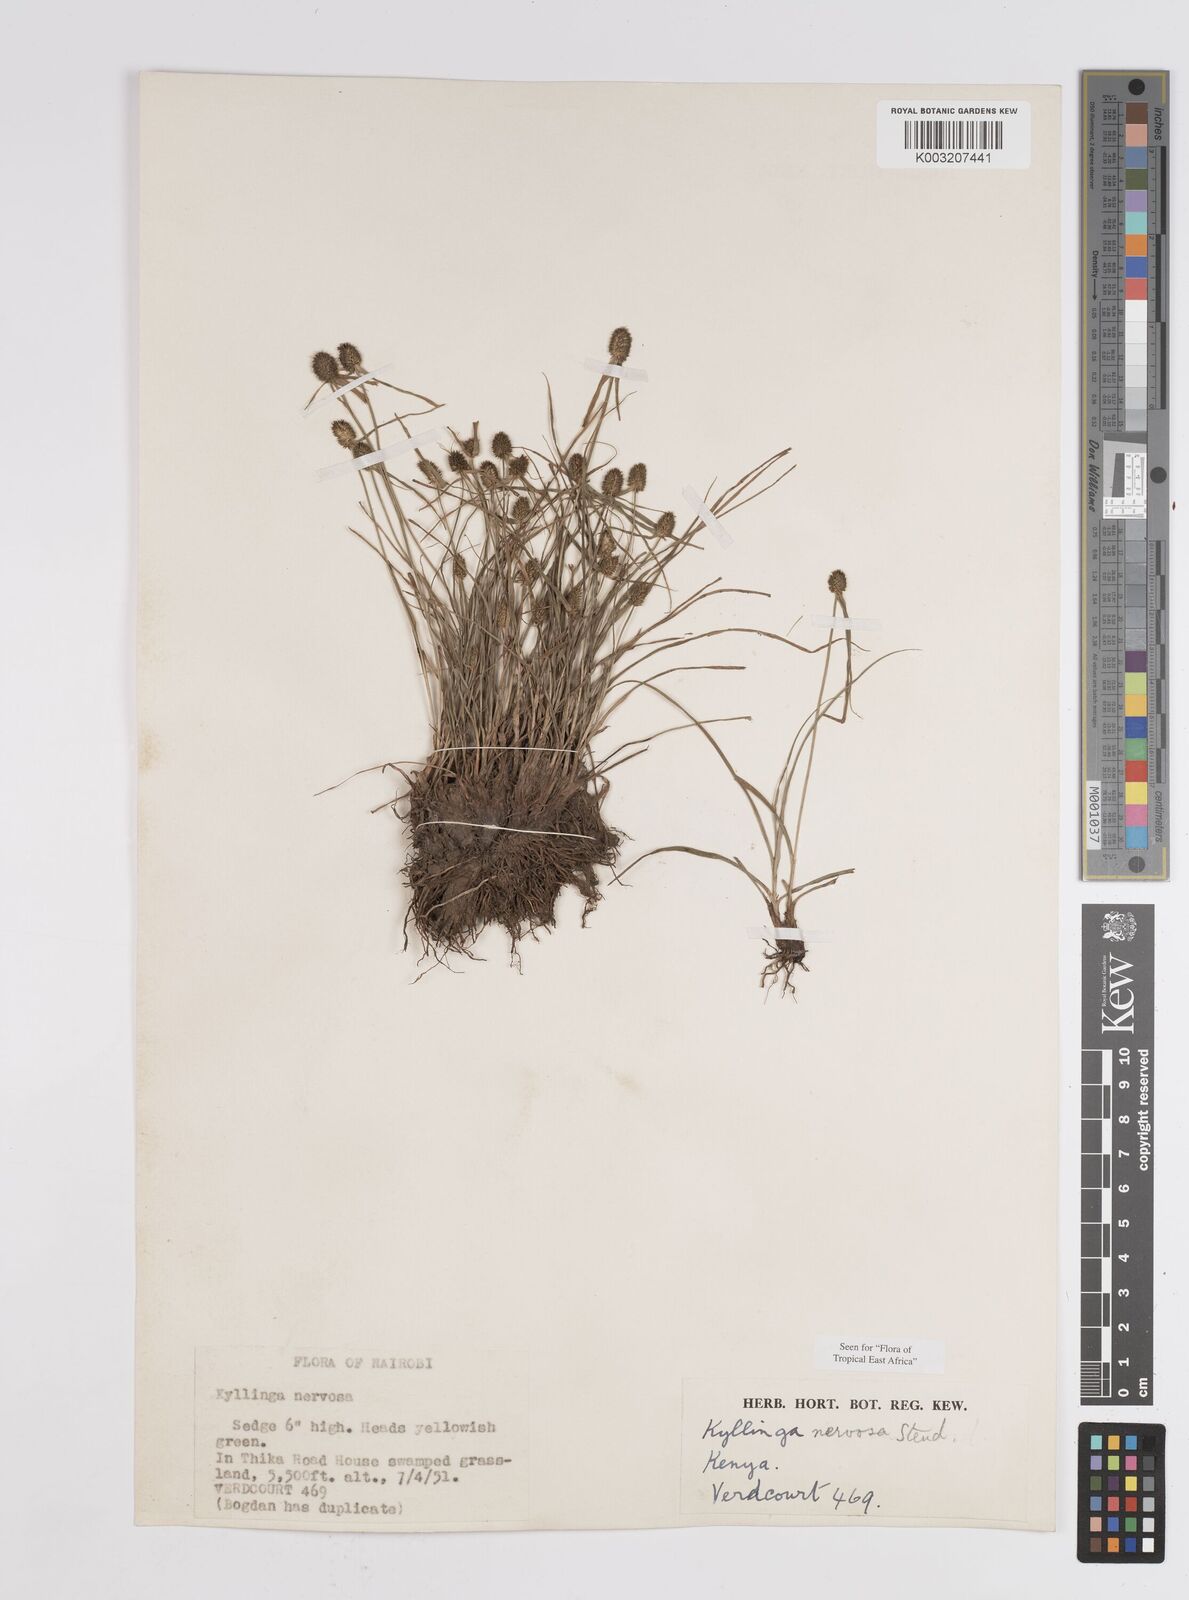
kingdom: Plantae
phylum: Tracheophyta
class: Liliopsida
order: Poales
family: Cyperaceae
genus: Cyperus
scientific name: Cyperus
